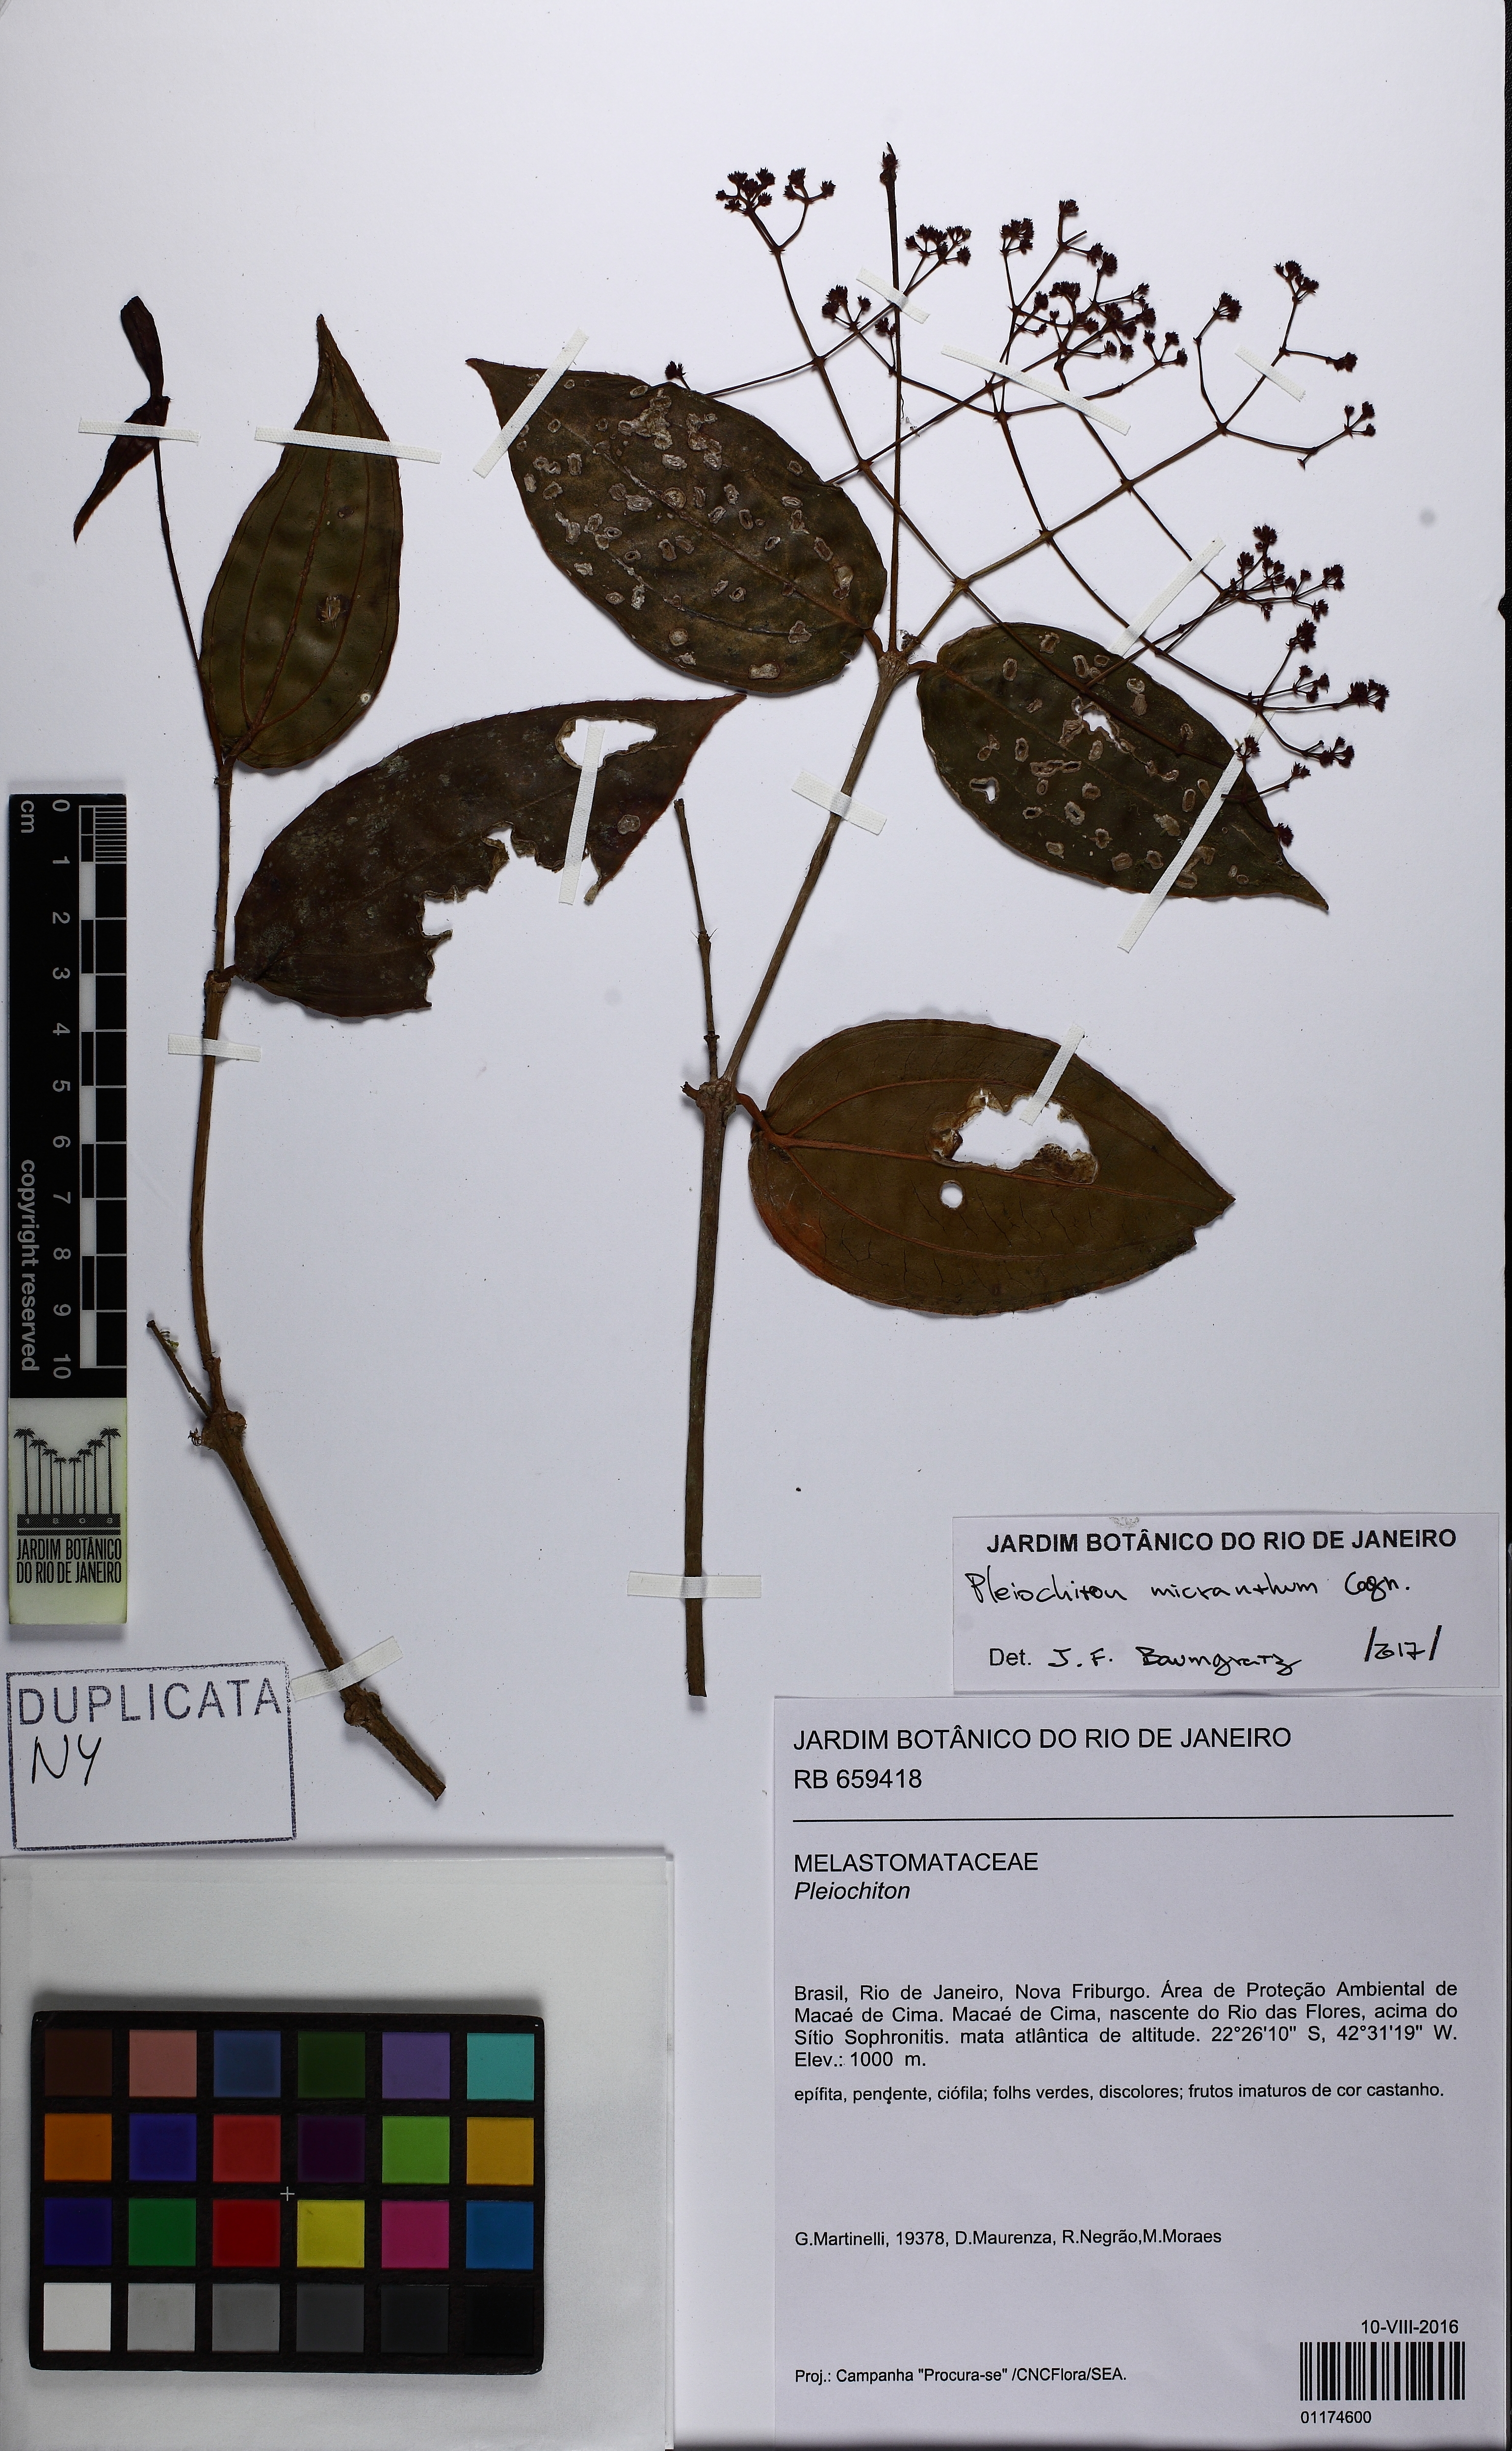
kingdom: Plantae
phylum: Tracheophyta
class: Magnoliopsida
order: Myrtales
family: Melastomataceae
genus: Miconia
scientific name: Miconia pleiomicrantha
